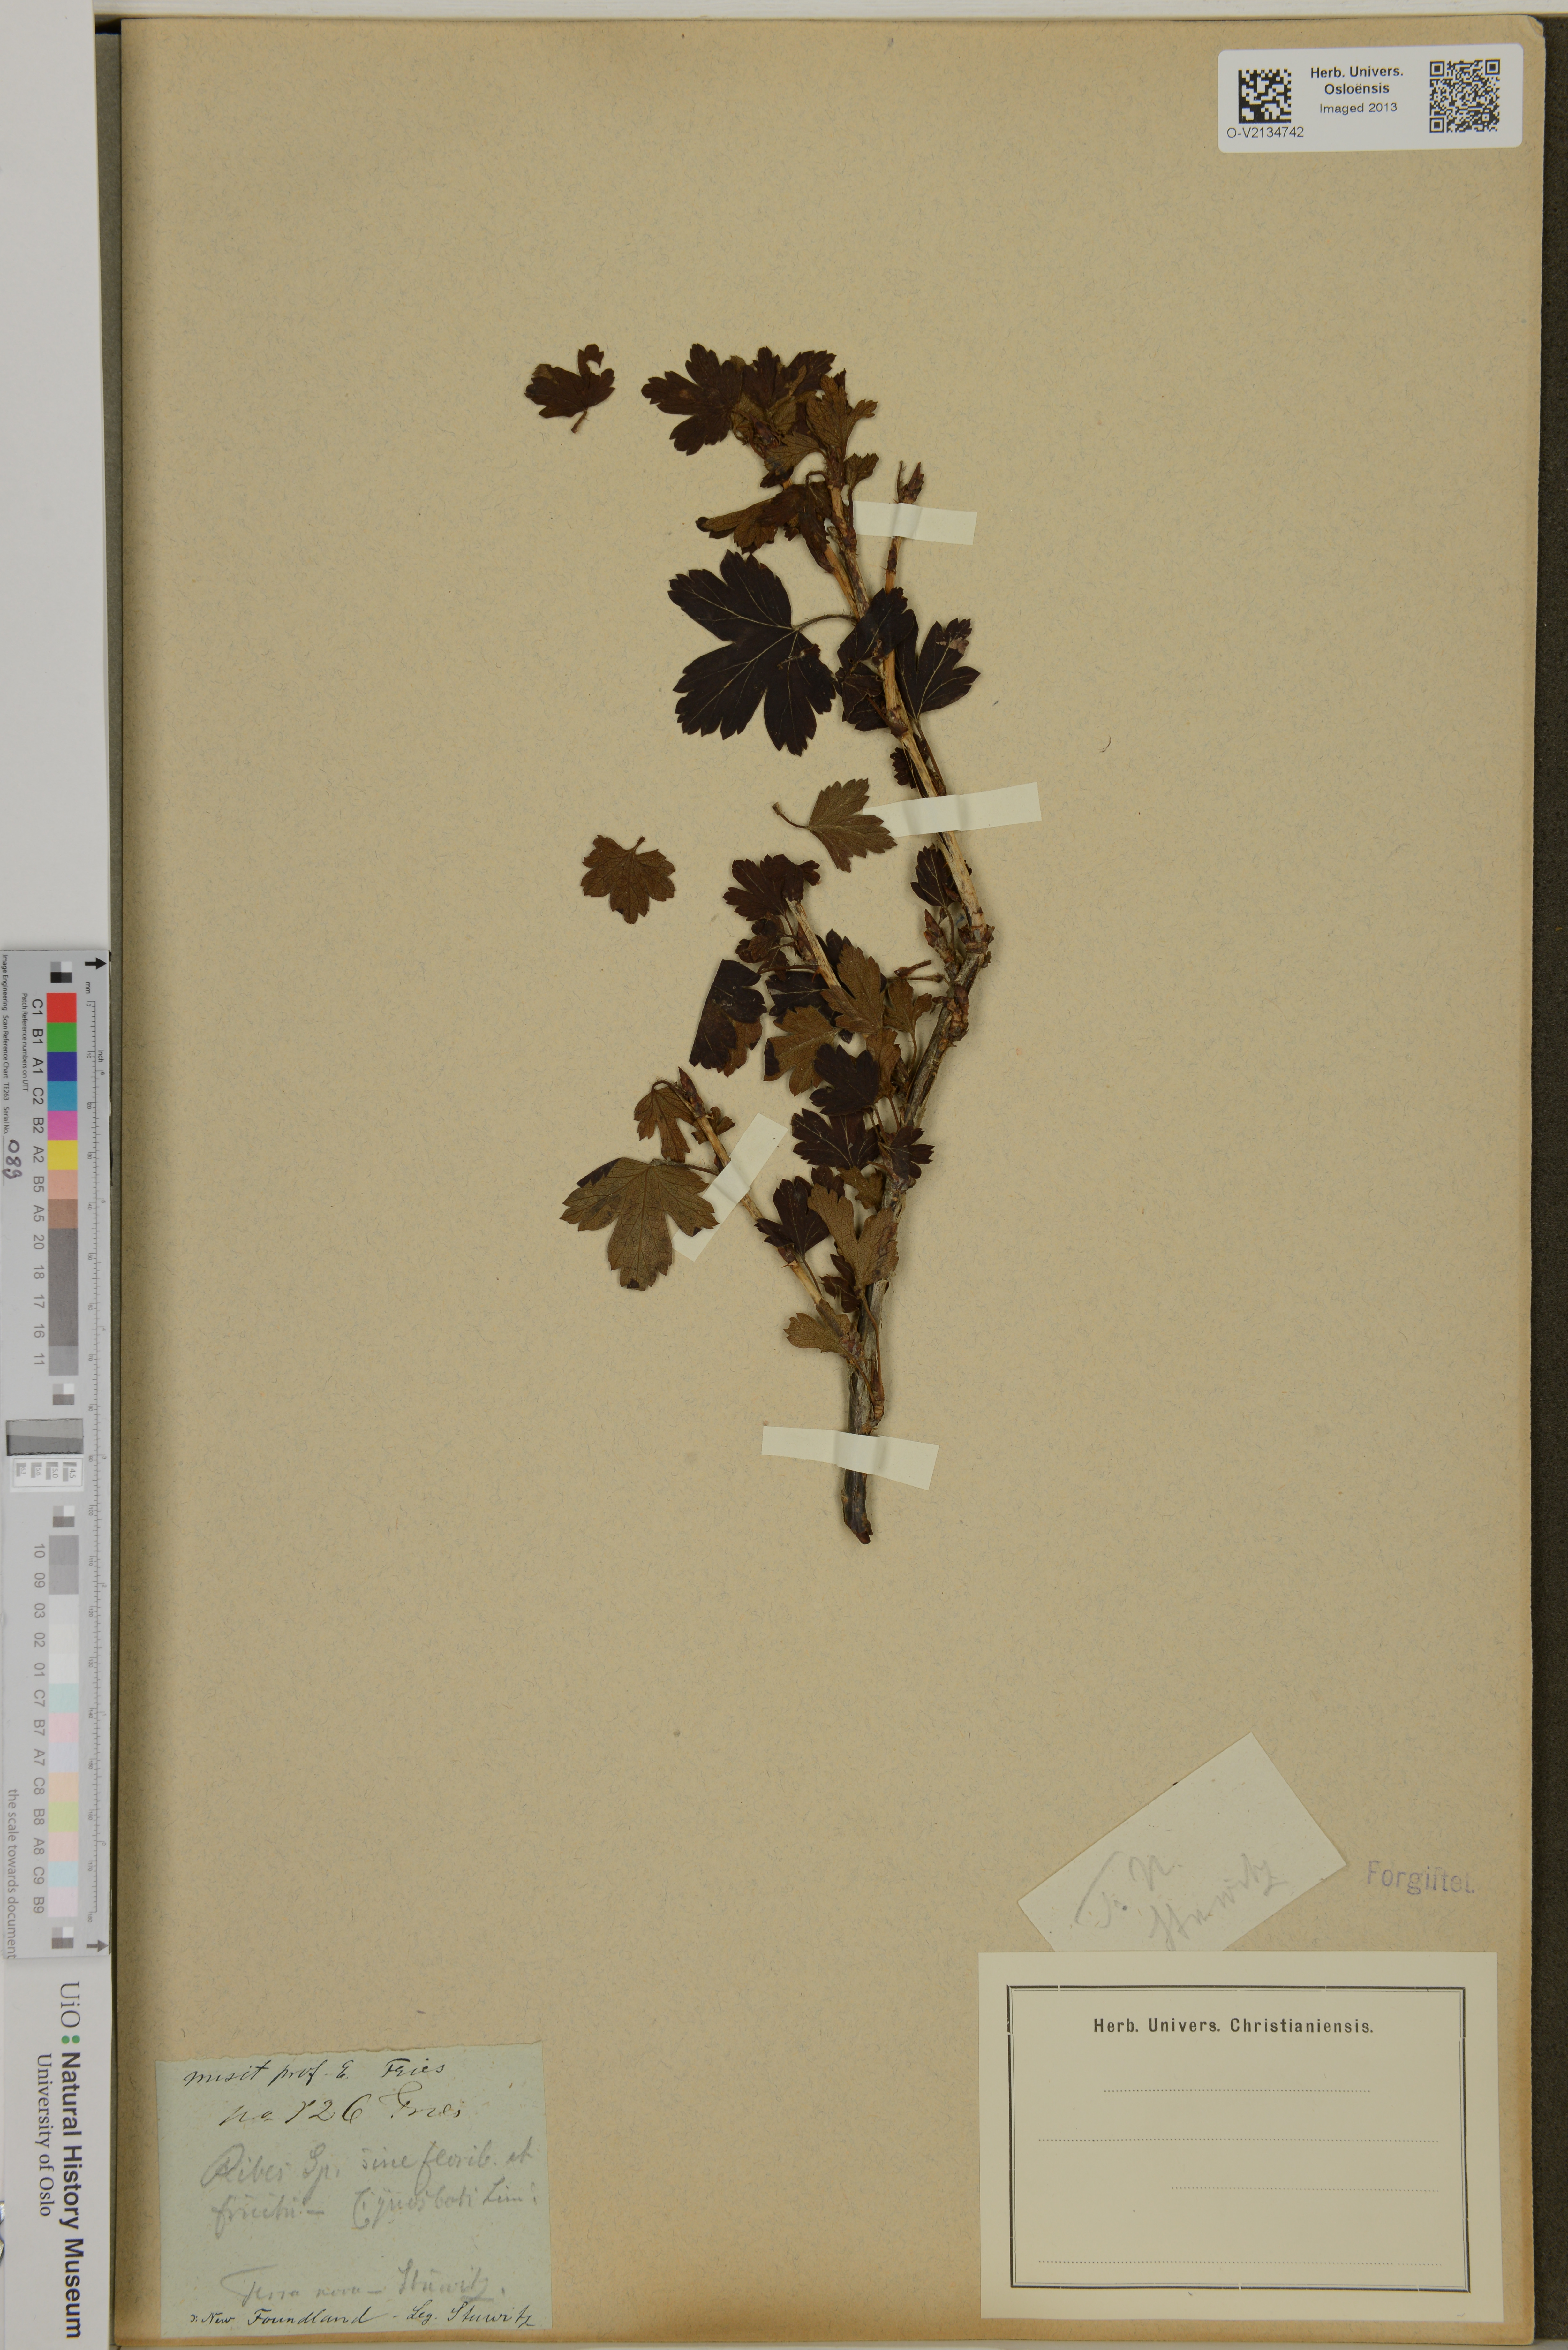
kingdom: Plantae
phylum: Tracheophyta
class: Magnoliopsida
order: Saxifragales
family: Grossulariaceae
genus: Ribes
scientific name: Ribes
